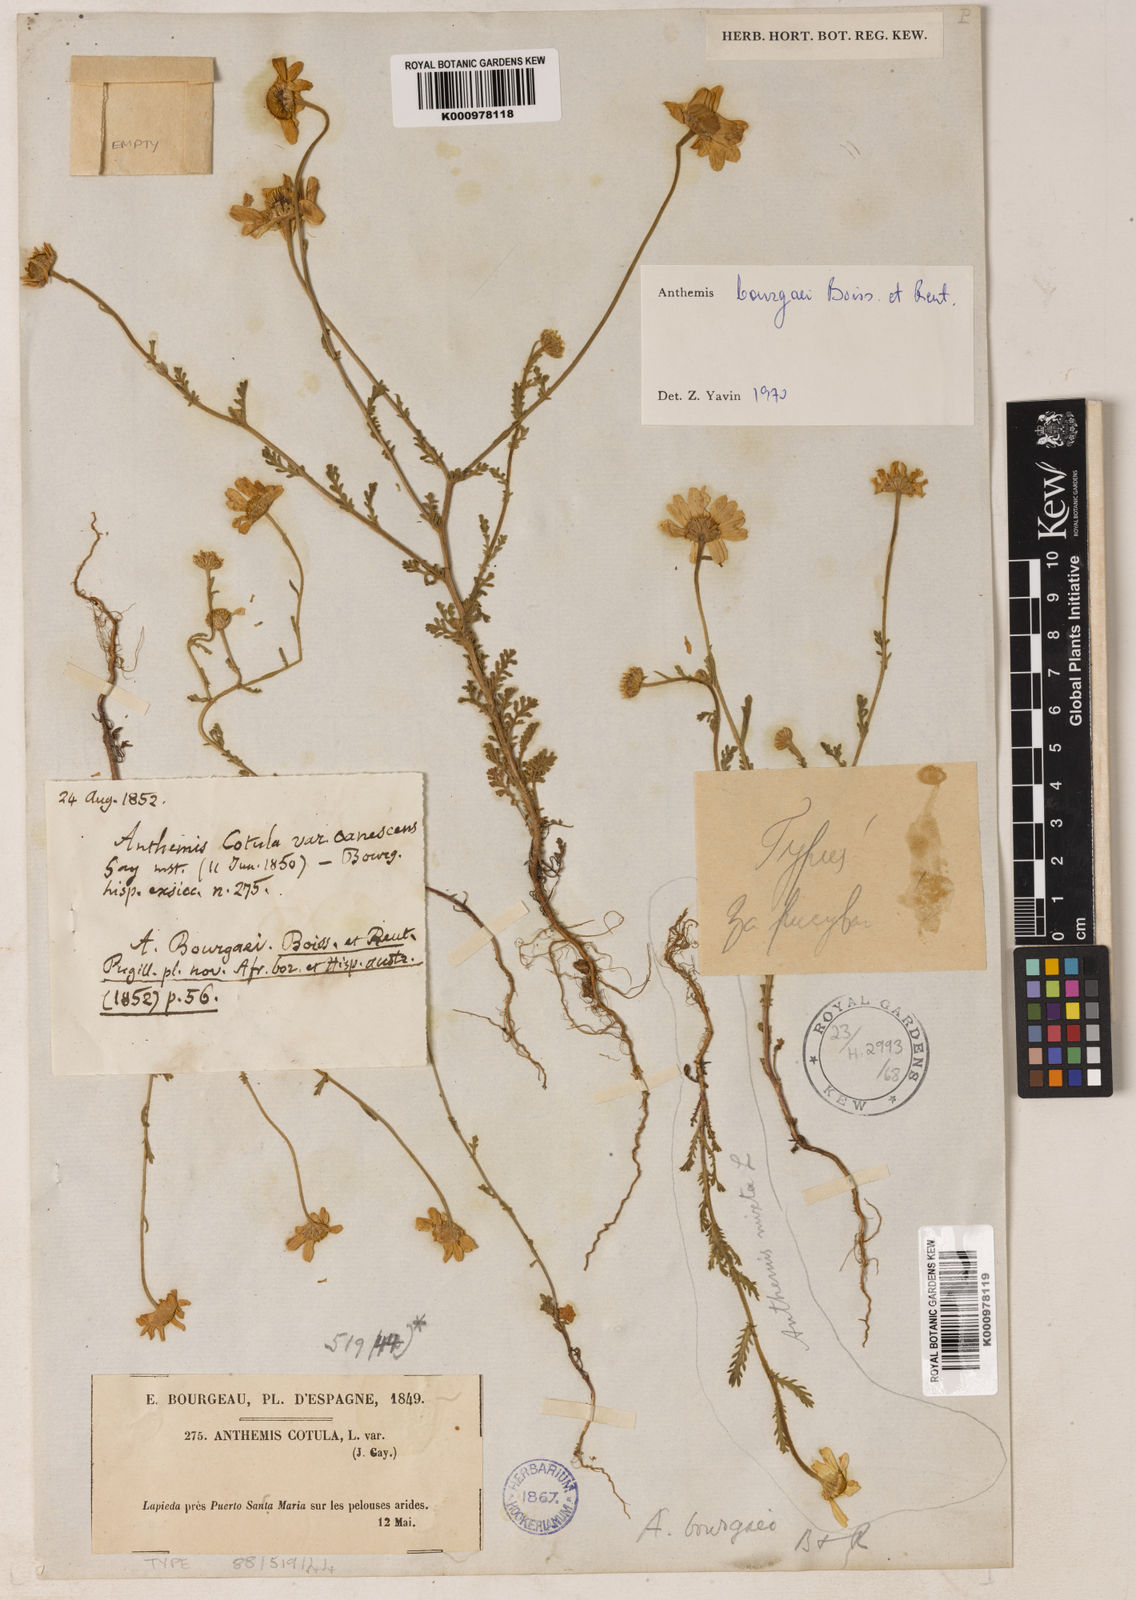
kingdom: Plantae
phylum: Tracheophyta
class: Magnoliopsida
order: Asterales
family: Asteraceae
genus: Anthemis
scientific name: Anthemis
